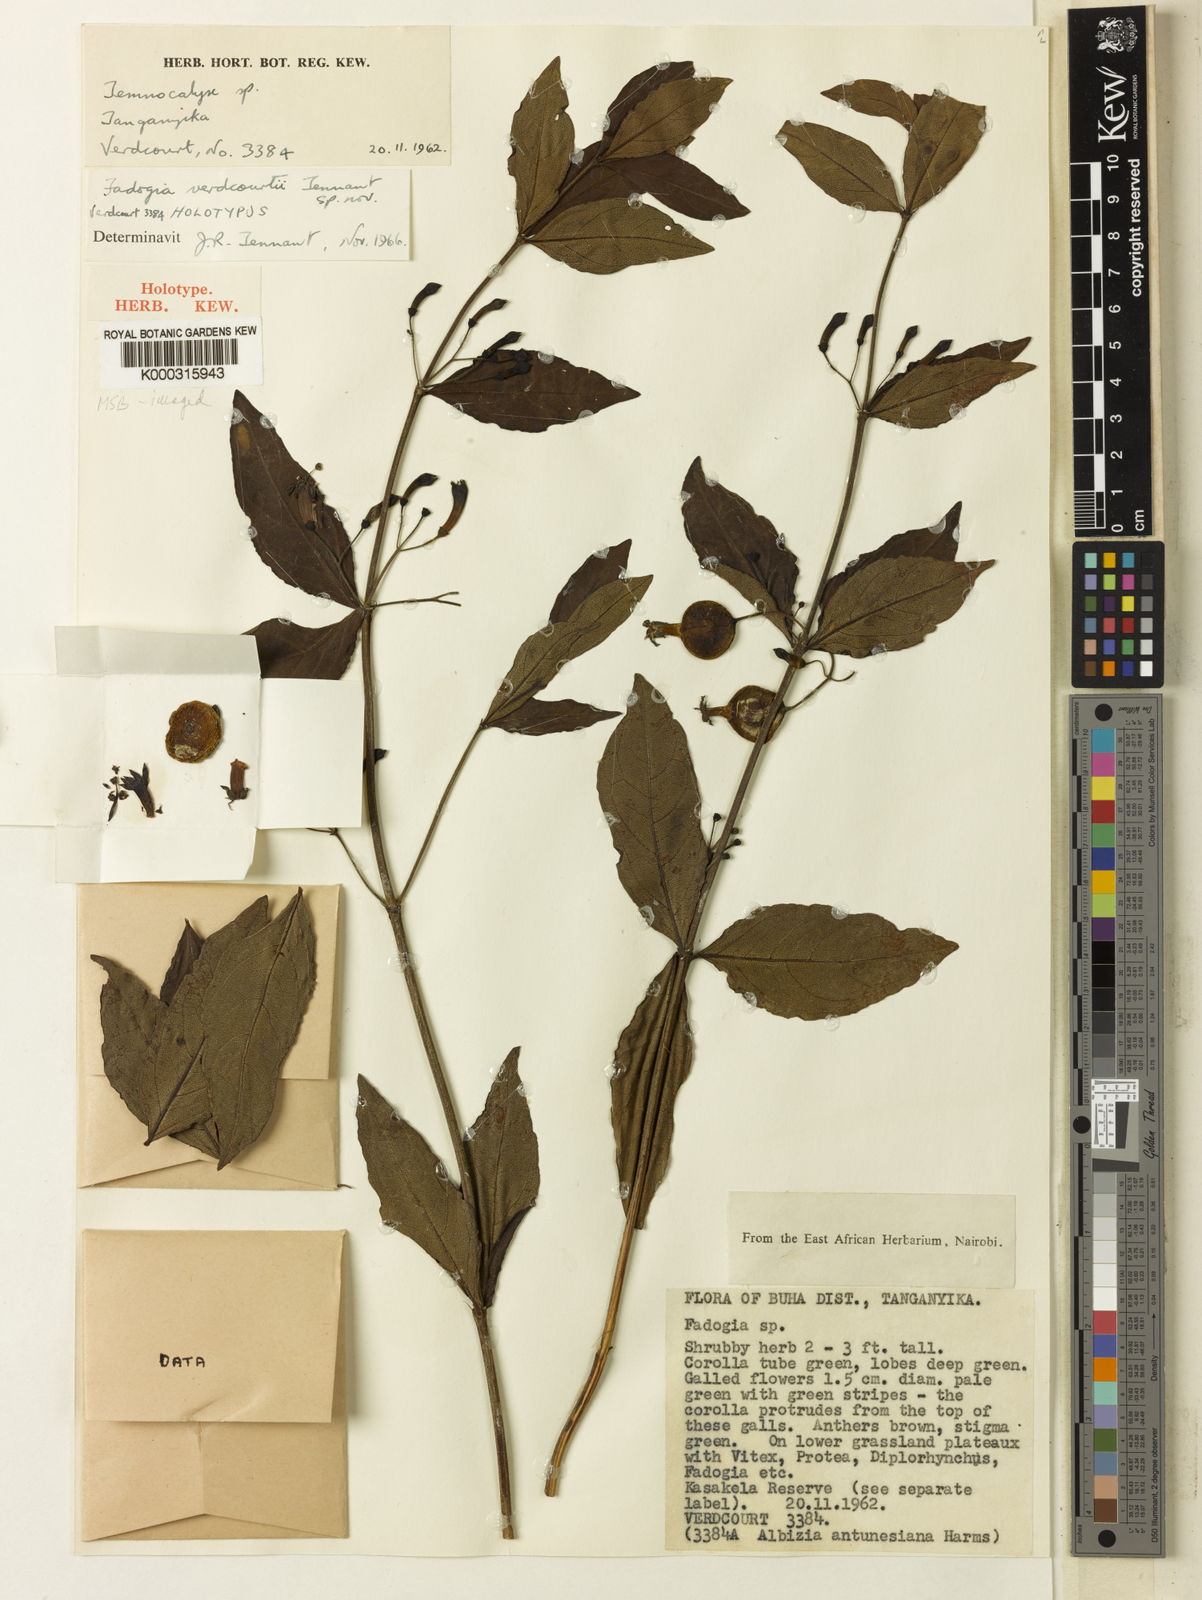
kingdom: Plantae
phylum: Tracheophyta
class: Magnoliopsida
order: Gentianales
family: Rubiaceae
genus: Fadogia
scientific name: Fadogia verdcourtii
